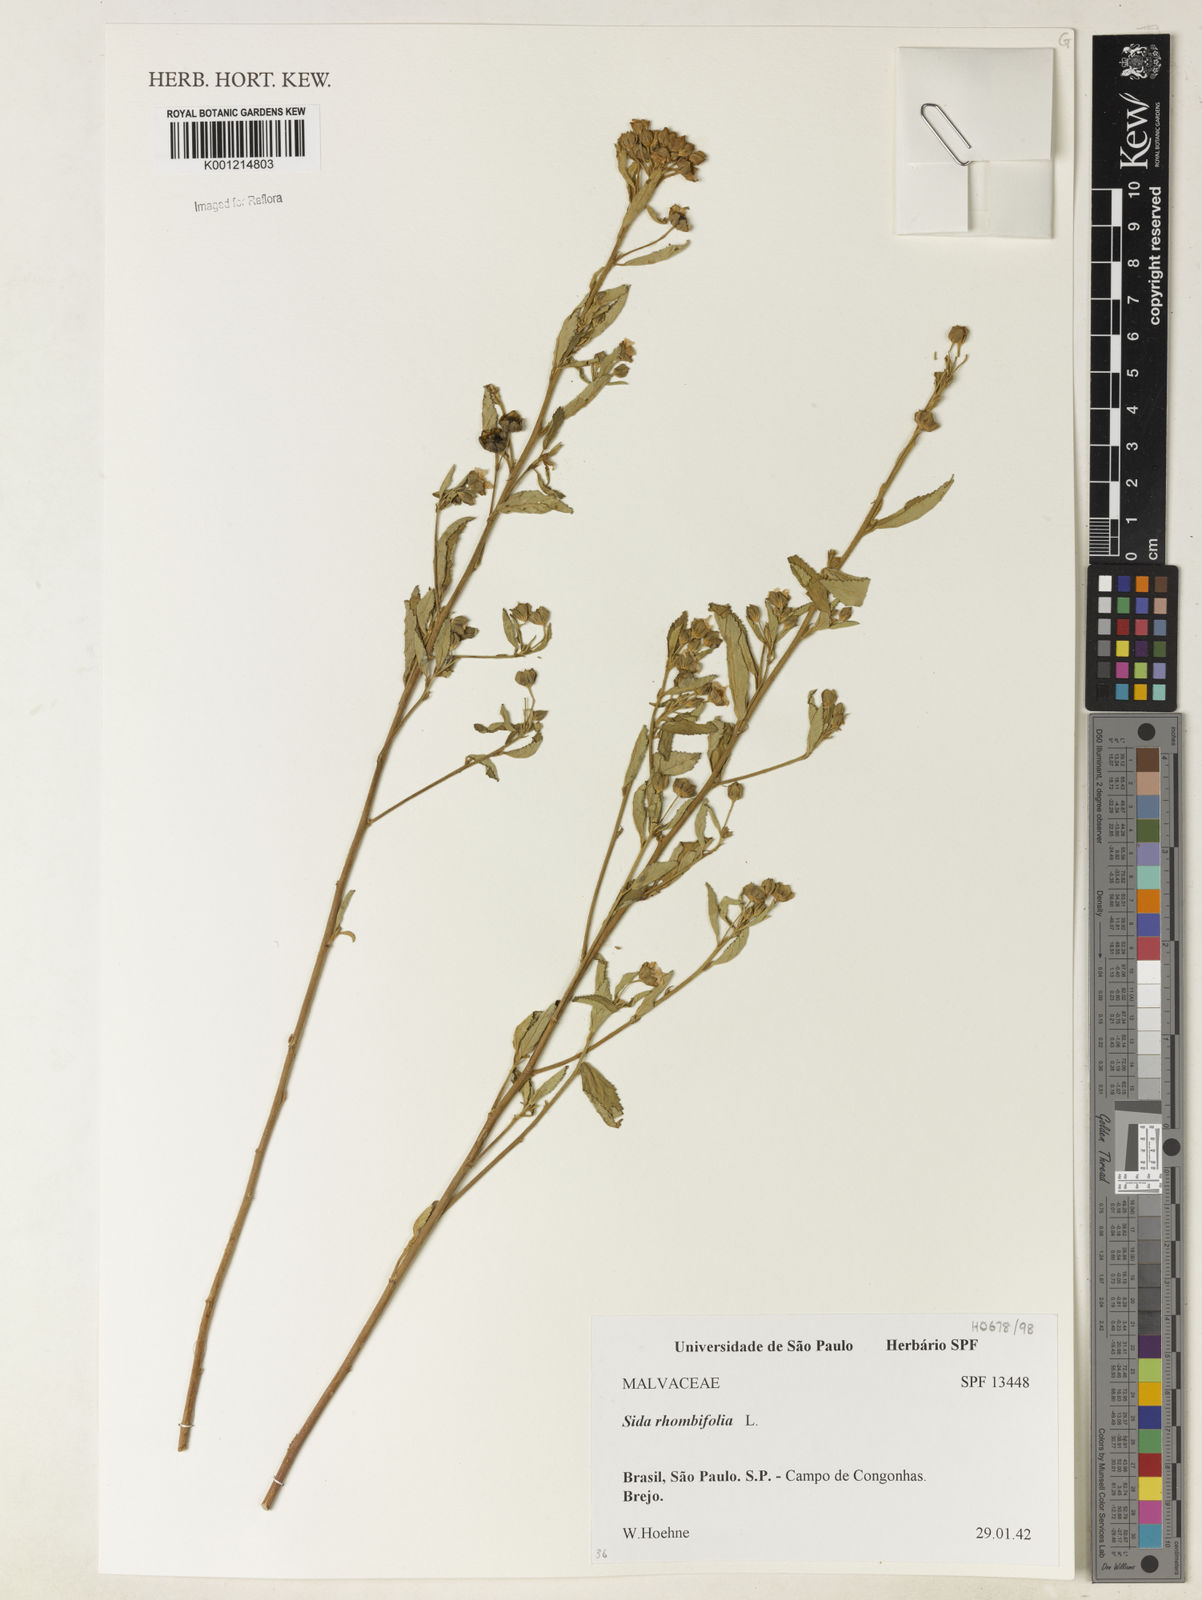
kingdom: Plantae
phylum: Tracheophyta
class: Magnoliopsida
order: Malvales
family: Malvaceae
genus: Sida
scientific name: Sida rhombifolia
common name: Queensland-hemp
